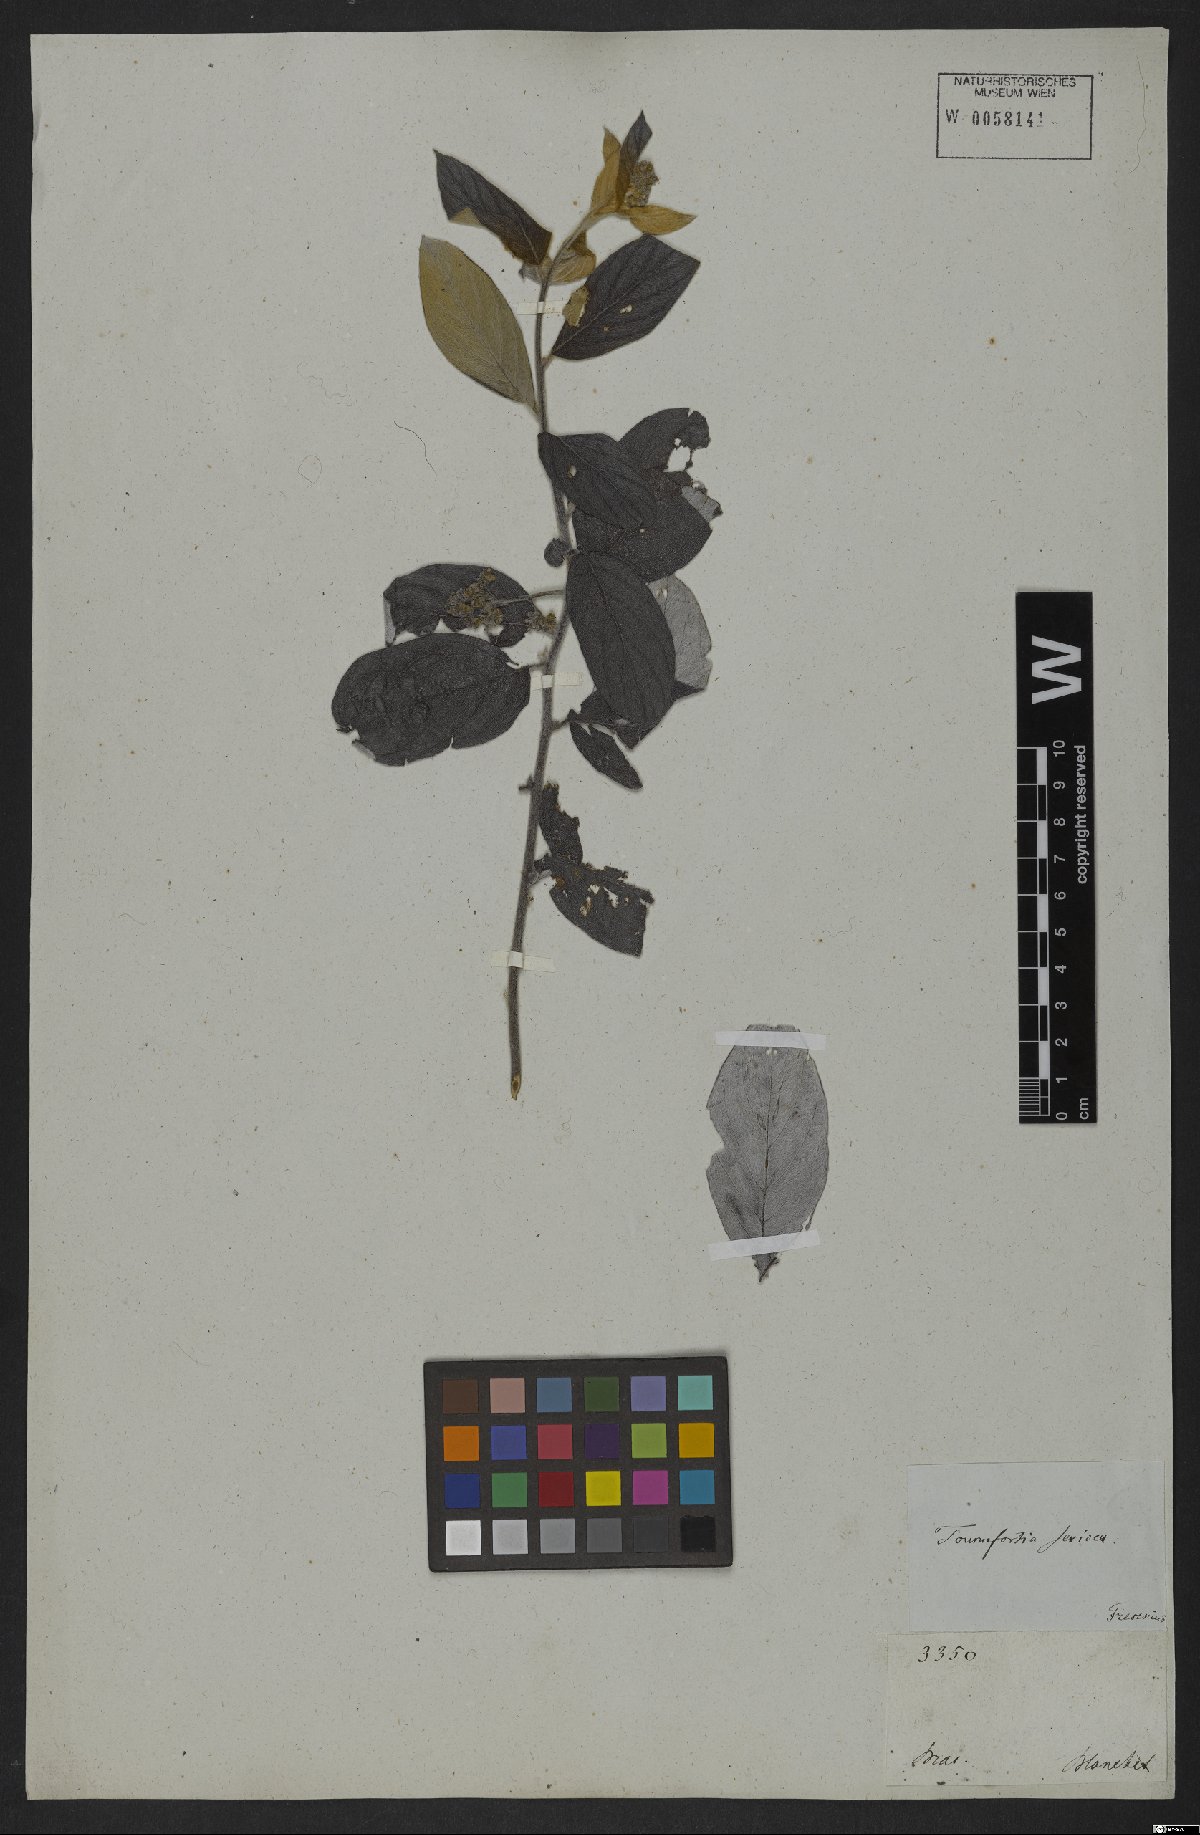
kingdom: Plantae
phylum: Tracheophyta
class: Magnoliopsida
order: Boraginales
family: Heliotropiaceae
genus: Myriopus
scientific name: Myriopus volubilis
